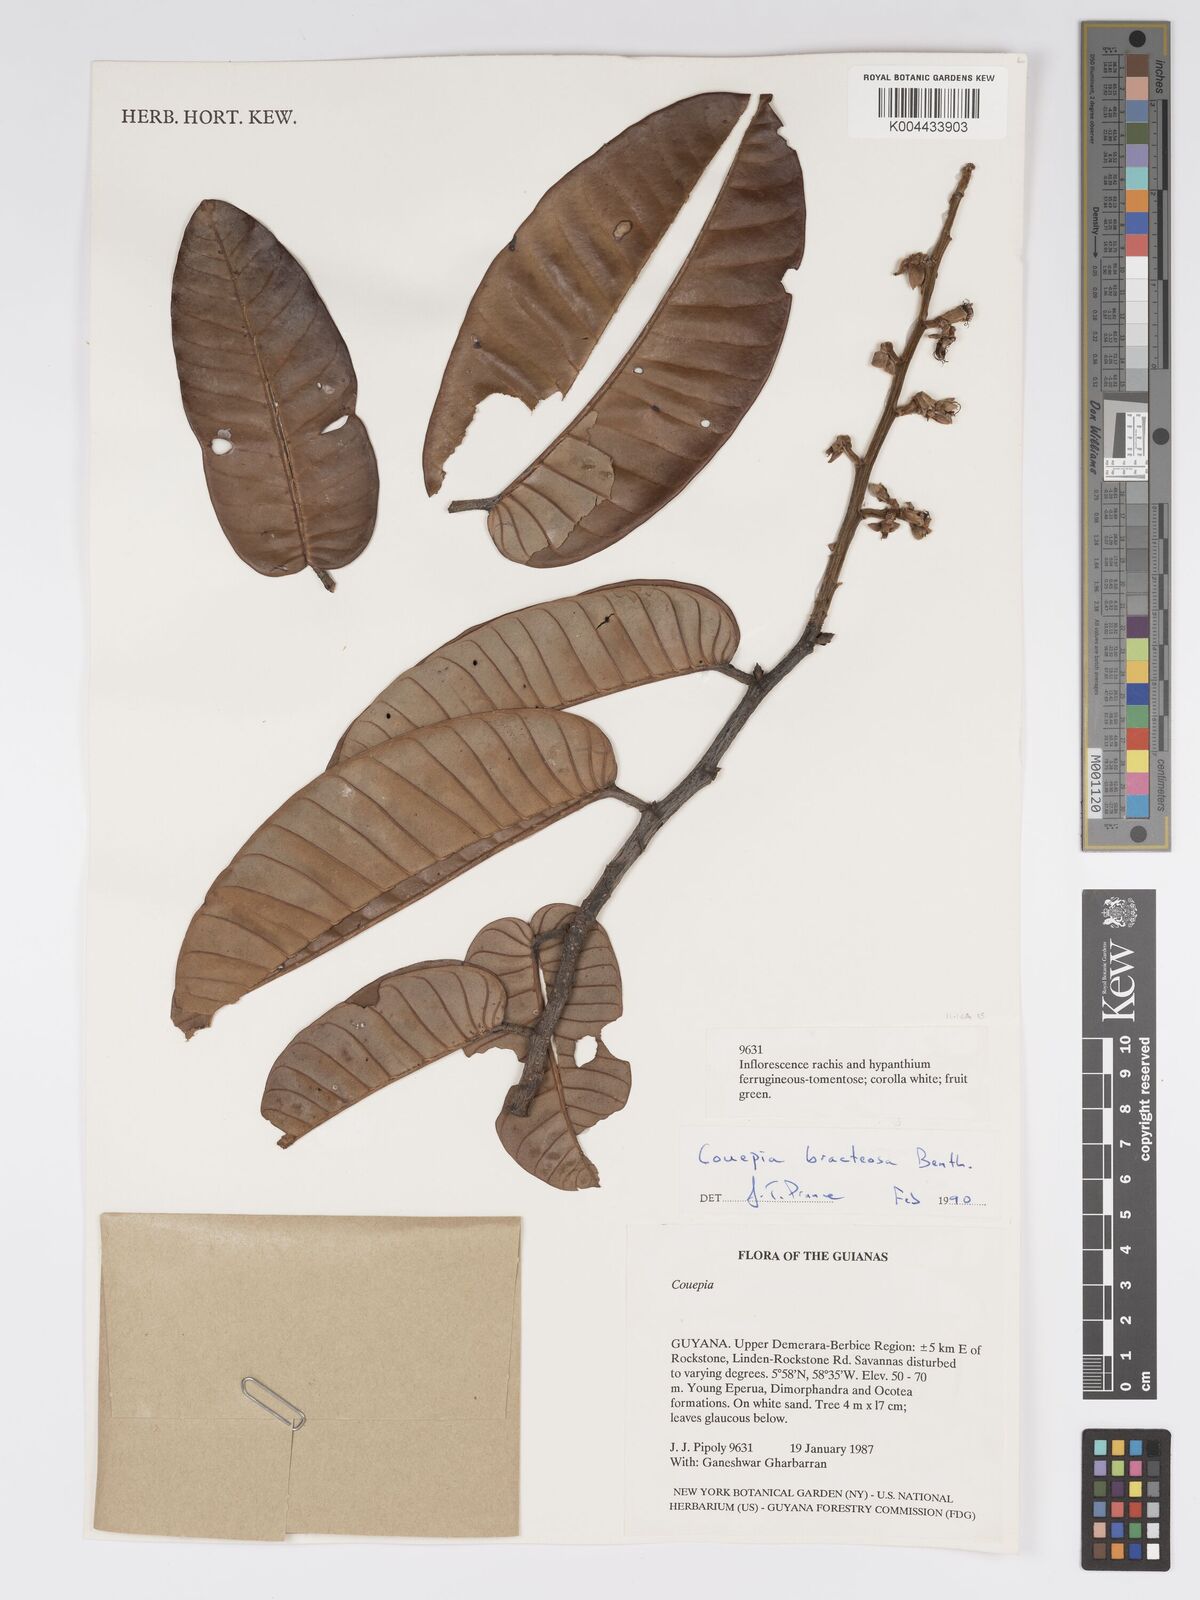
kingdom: Plantae
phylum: Tracheophyta
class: Magnoliopsida
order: Malpighiales
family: Chrysobalanaceae
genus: Couepia
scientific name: Couepia bracteosa
